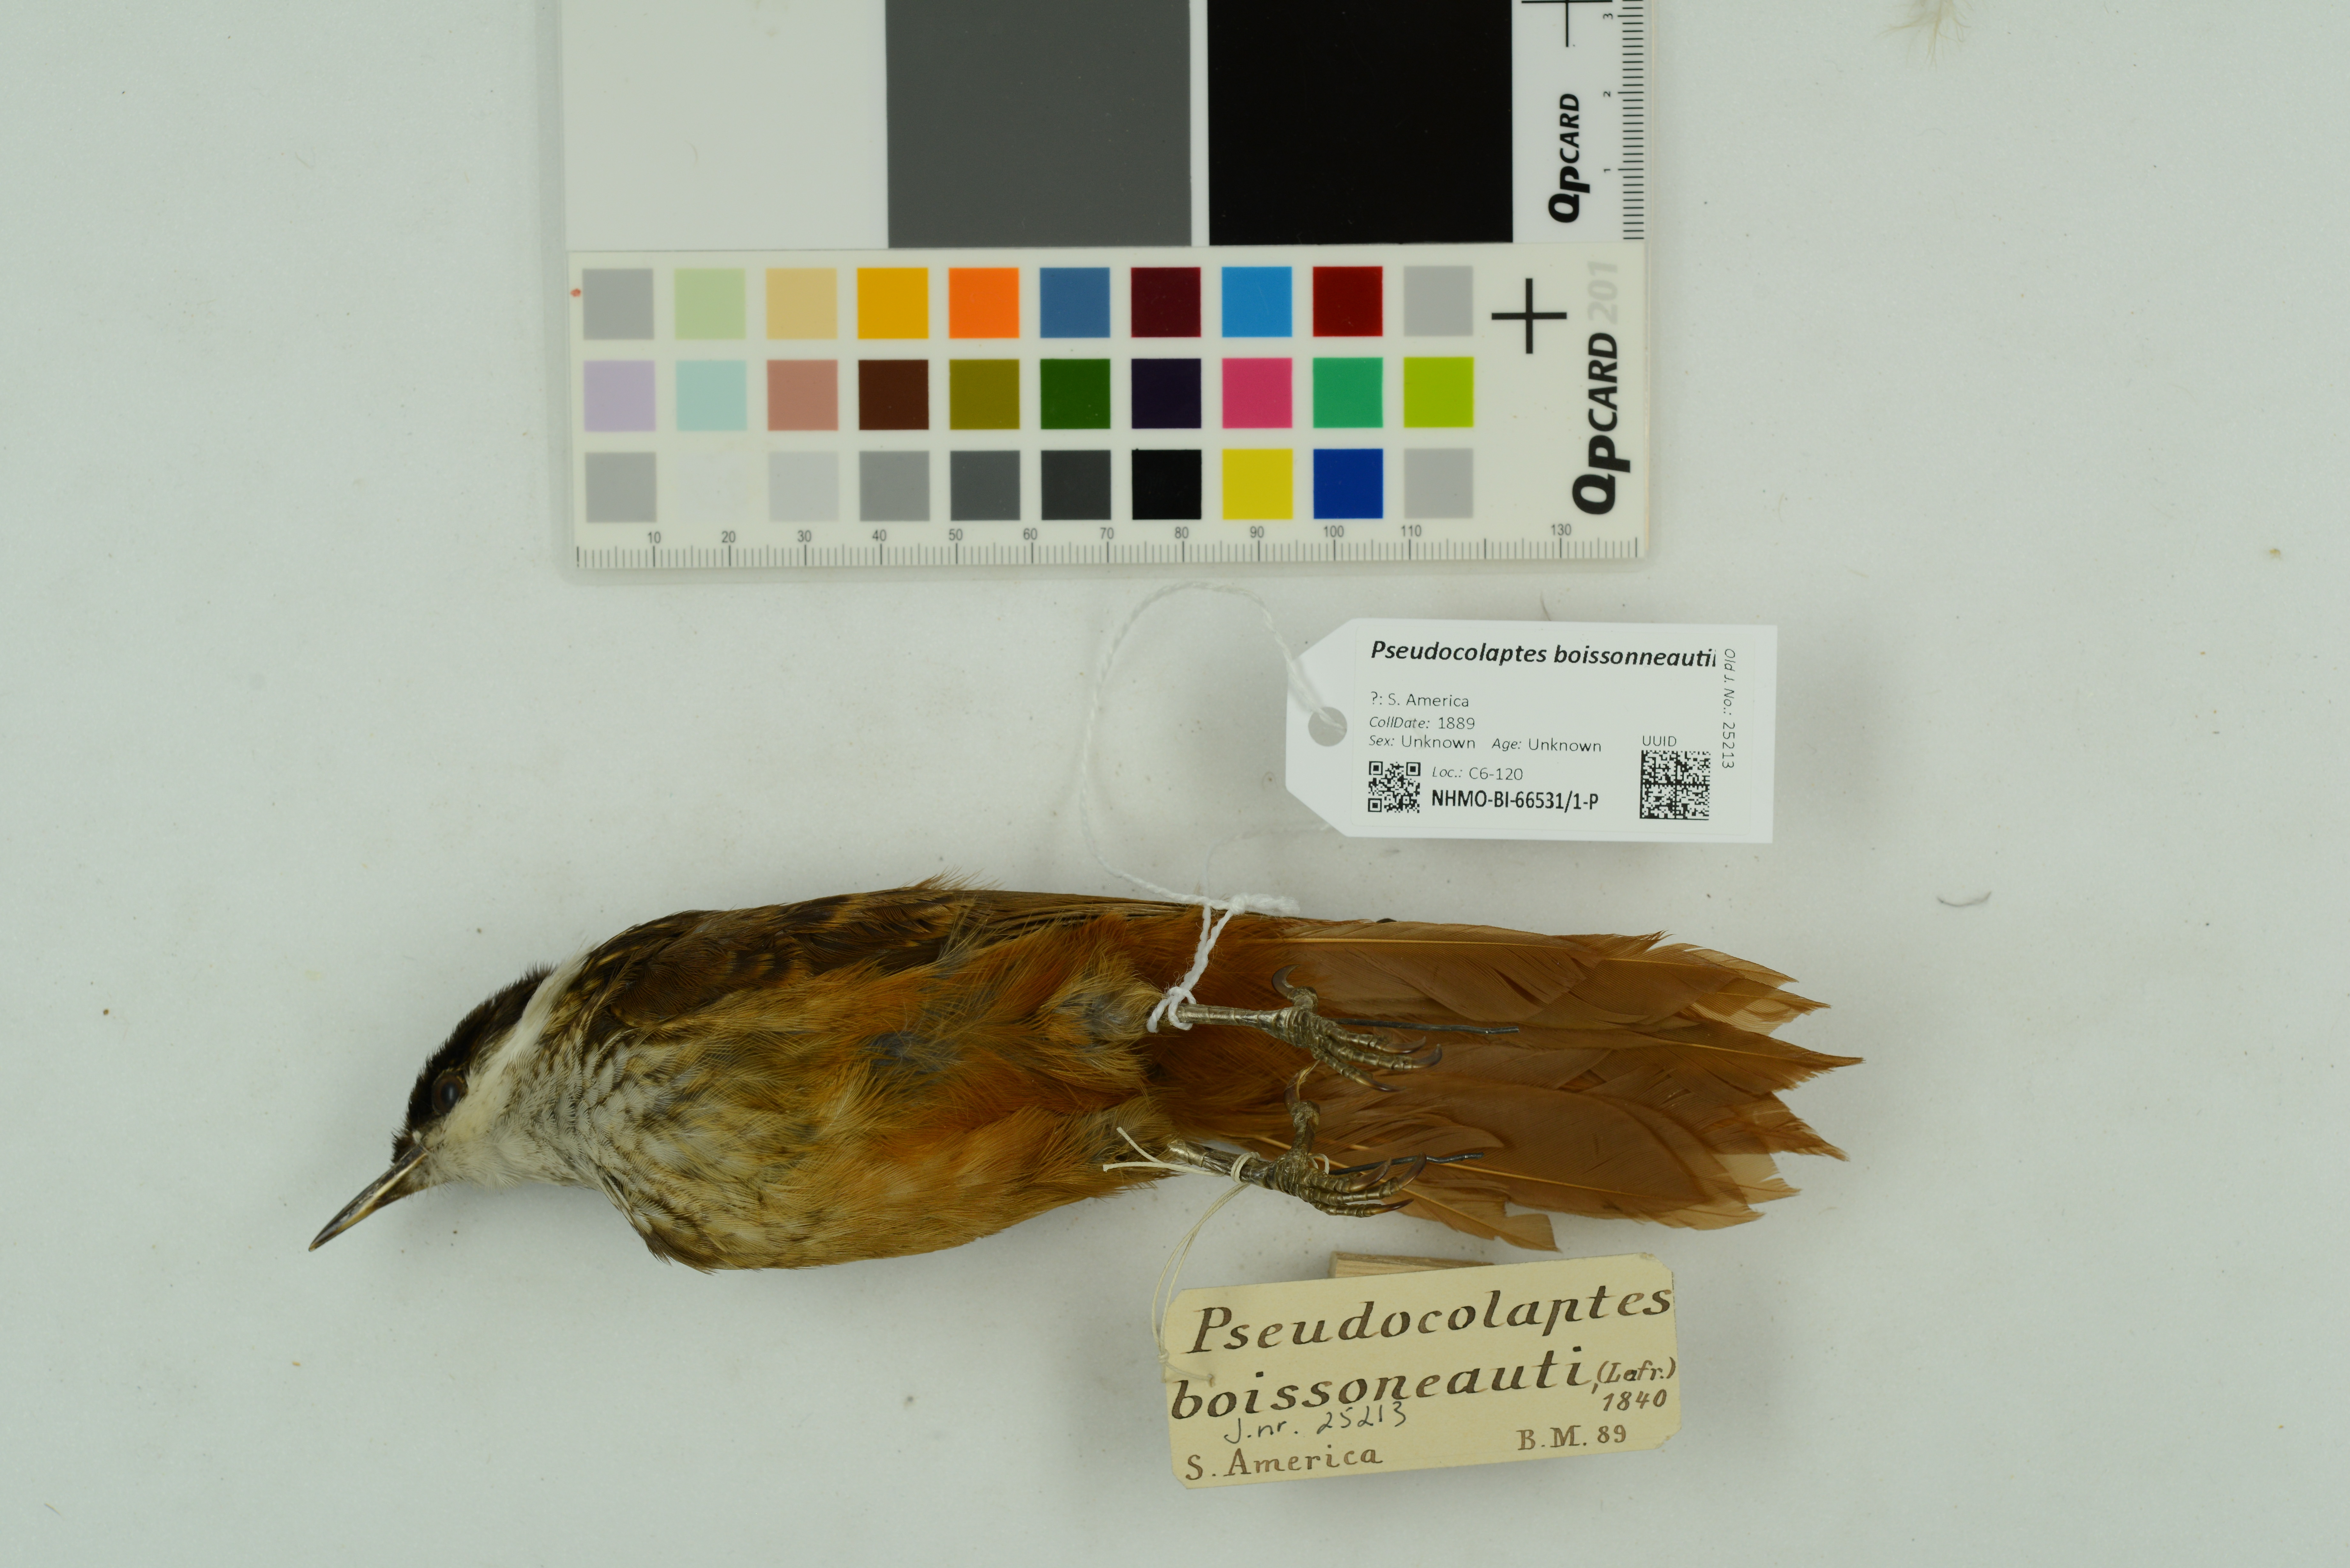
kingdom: Animalia
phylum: Chordata
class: Aves
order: Passeriformes
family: Furnariidae
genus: Pseudocolaptes
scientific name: Pseudocolaptes boissonneautii
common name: Streaked tuftedcheek
